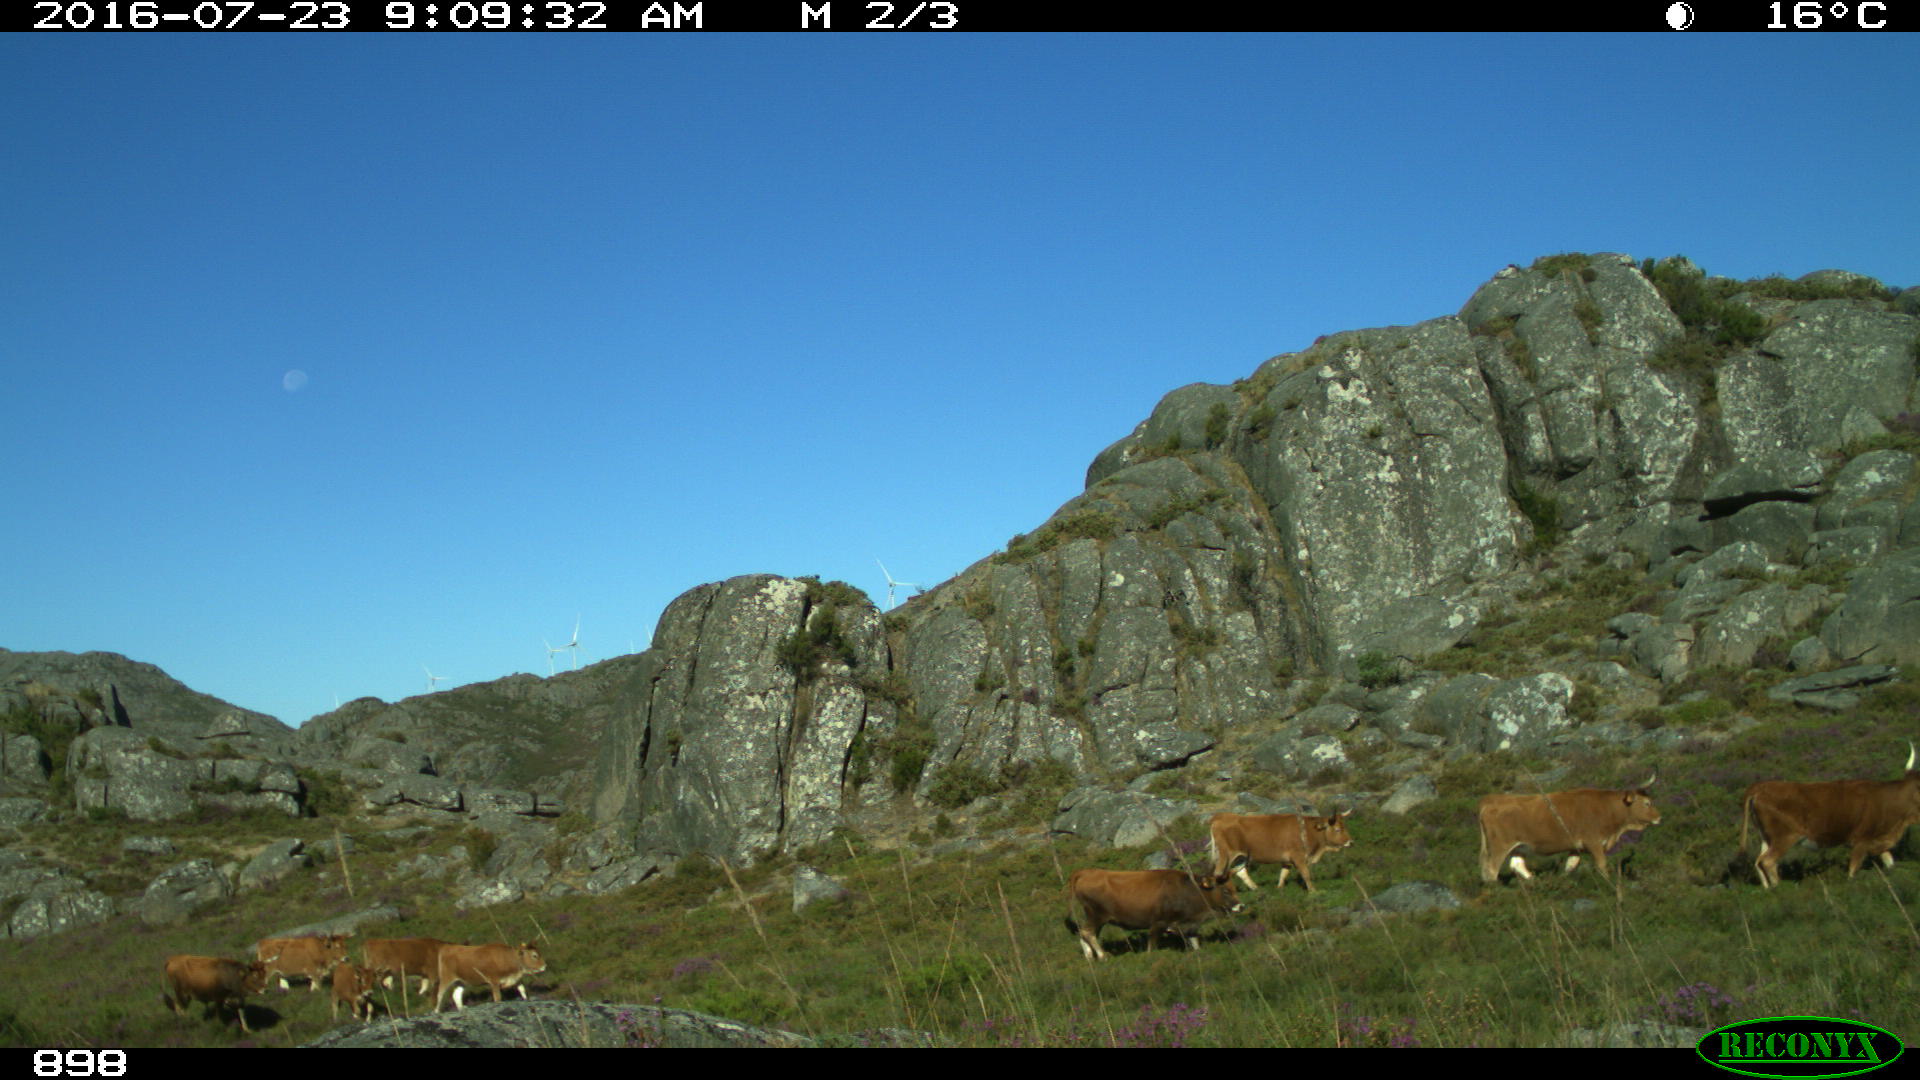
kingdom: Animalia
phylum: Chordata
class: Mammalia
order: Artiodactyla
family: Bovidae
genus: Bos
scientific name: Bos taurus
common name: Domesticated cattle
